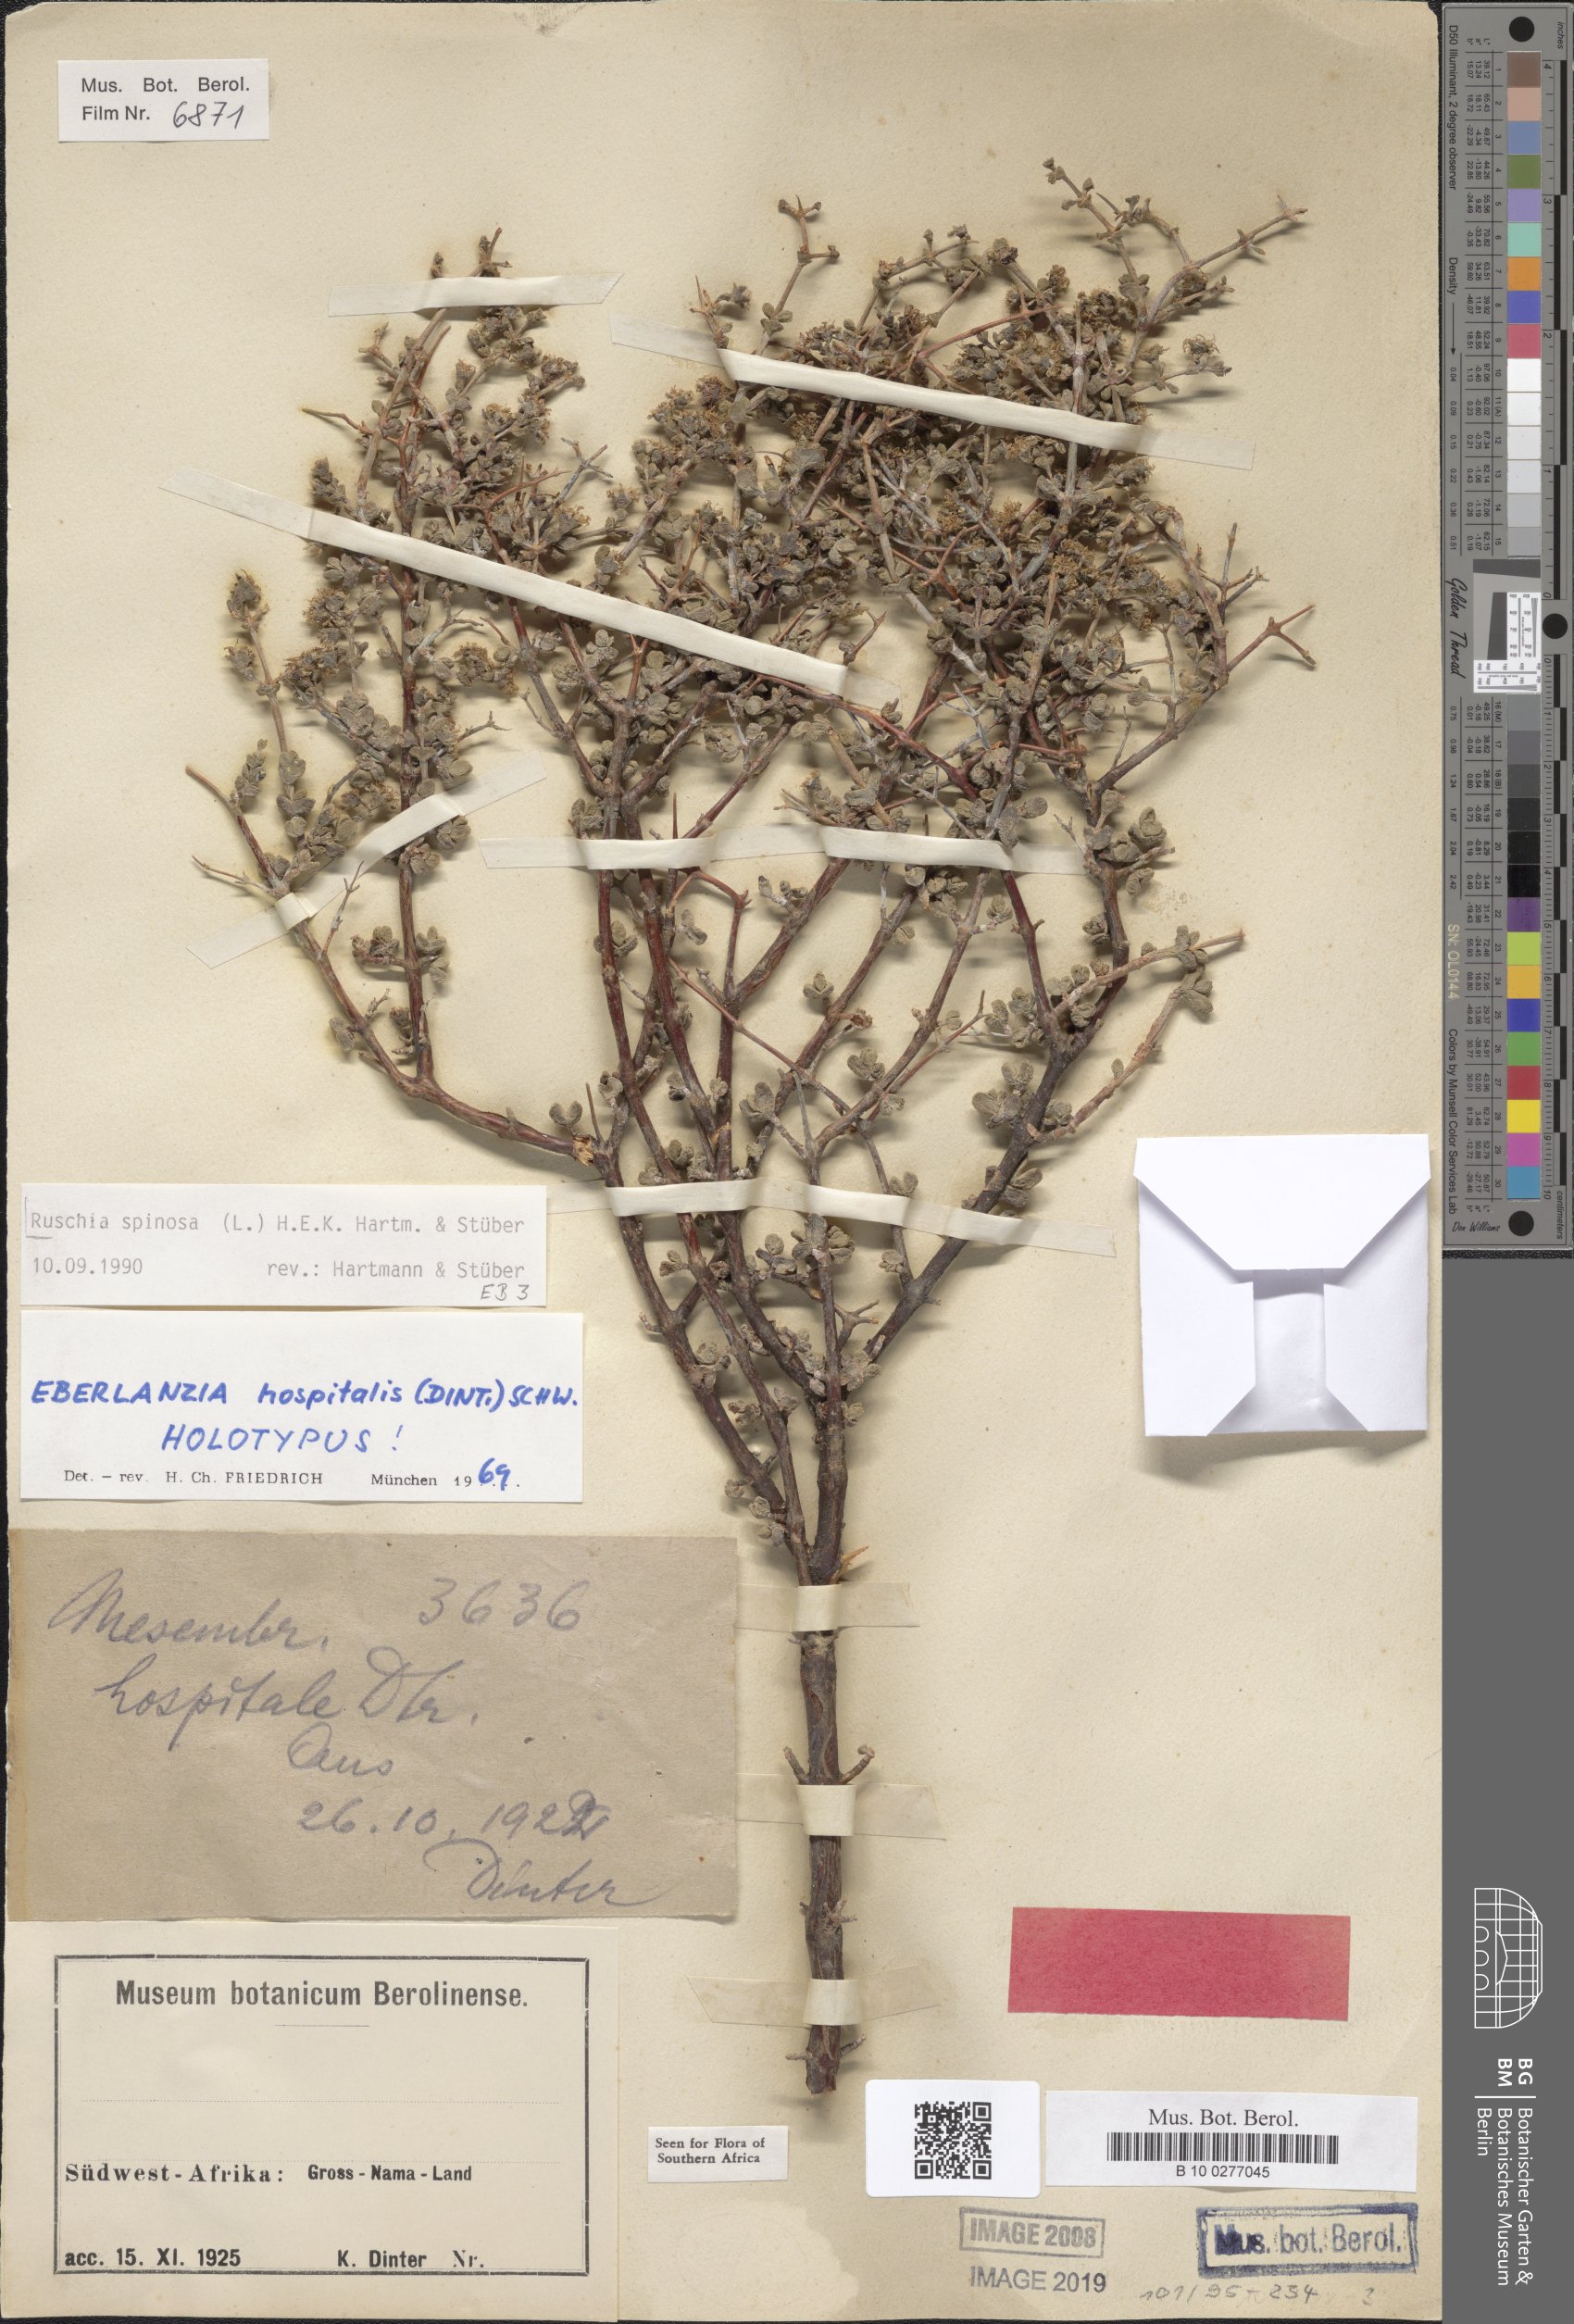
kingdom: Plantae
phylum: Tracheophyta
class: Magnoliopsida
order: Caryophyllales
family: Aizoaceae
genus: Ruschia
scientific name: Ruschia spinosa
